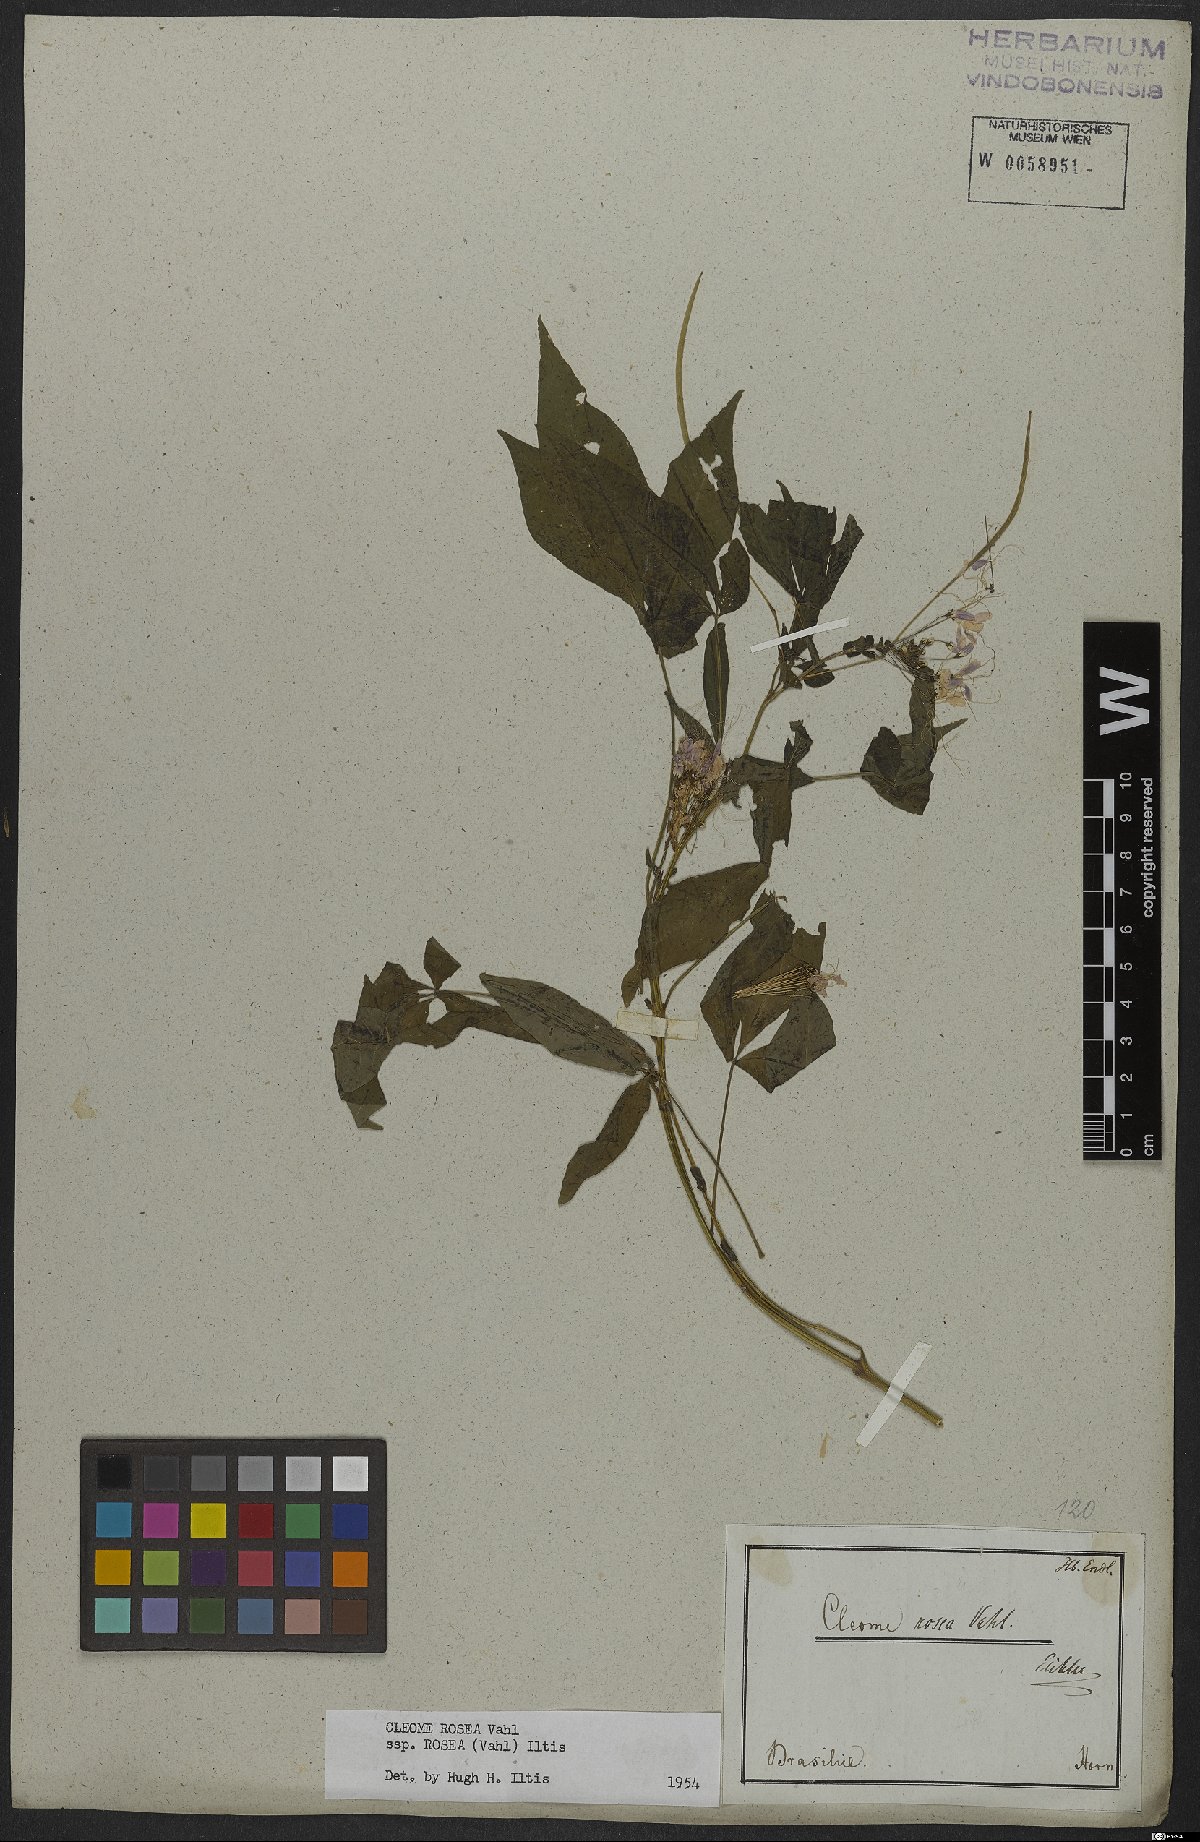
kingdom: Plantae
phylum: Tracheophyta
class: Magnoliopsida
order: Brassicales
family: Cleomaceae
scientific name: Cleomaceae
